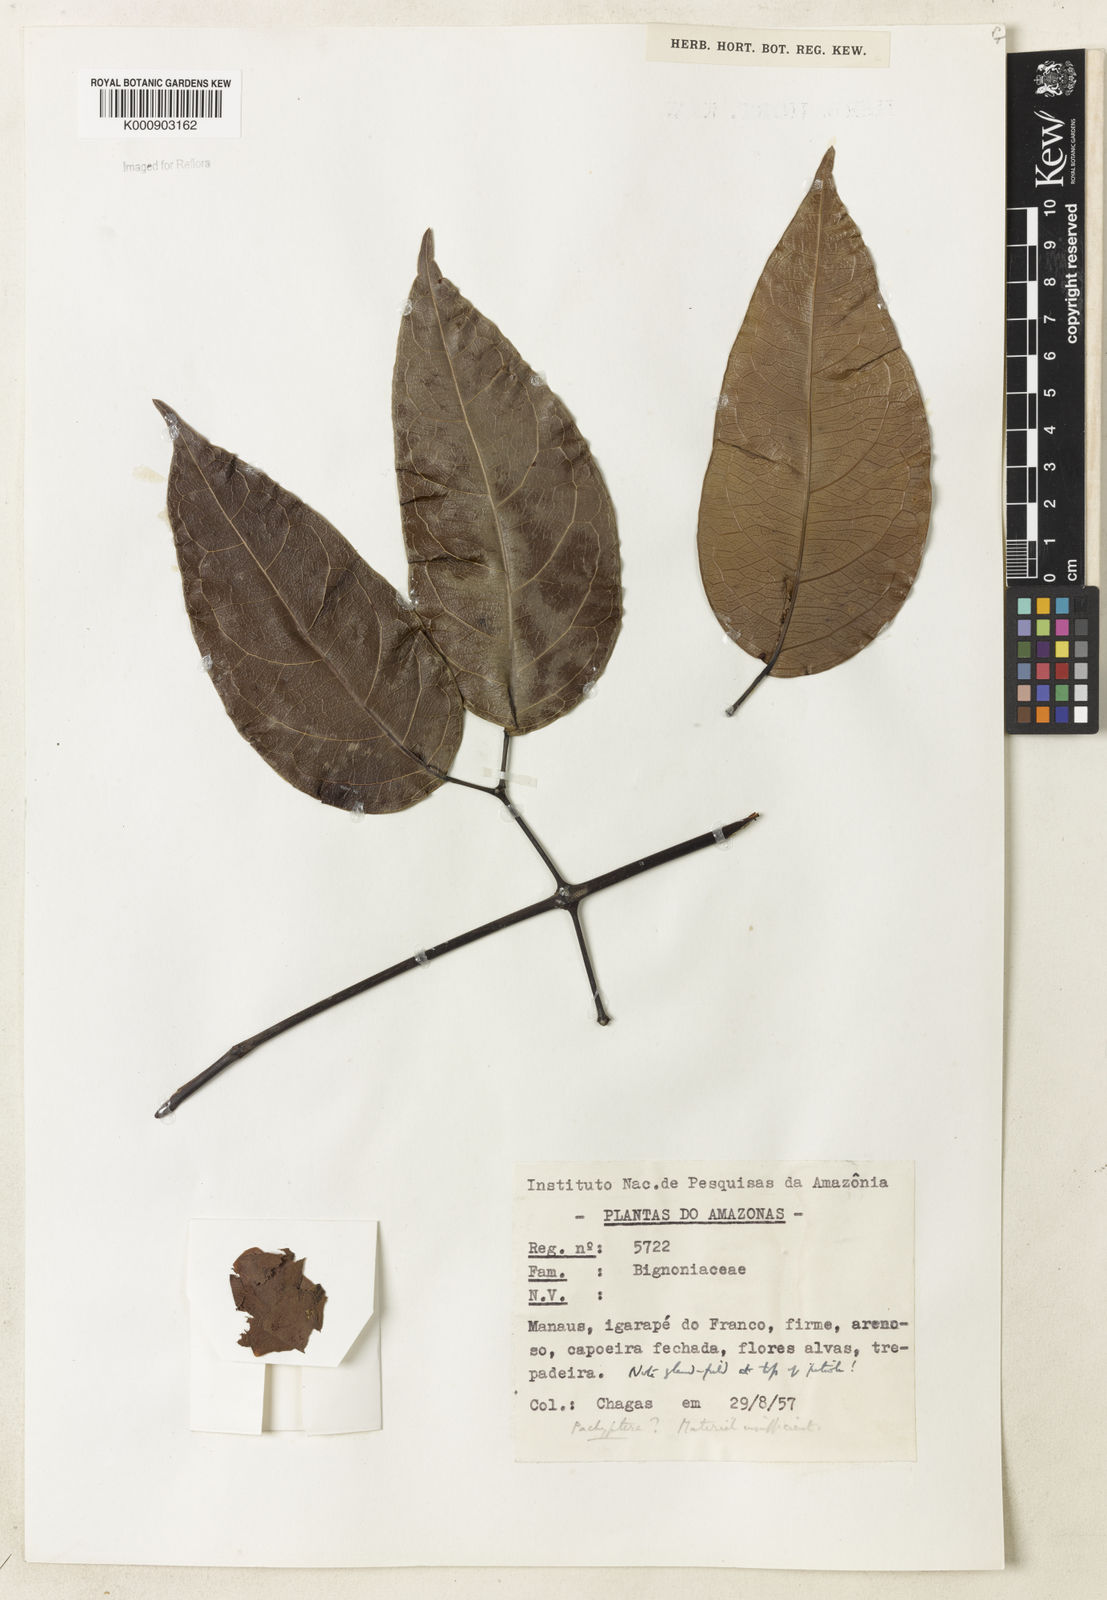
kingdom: Plantae
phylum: Tracheophyta
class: Magnoliopsida
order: Lamiales
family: Bignoniaceae
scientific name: Bignoniaceae
